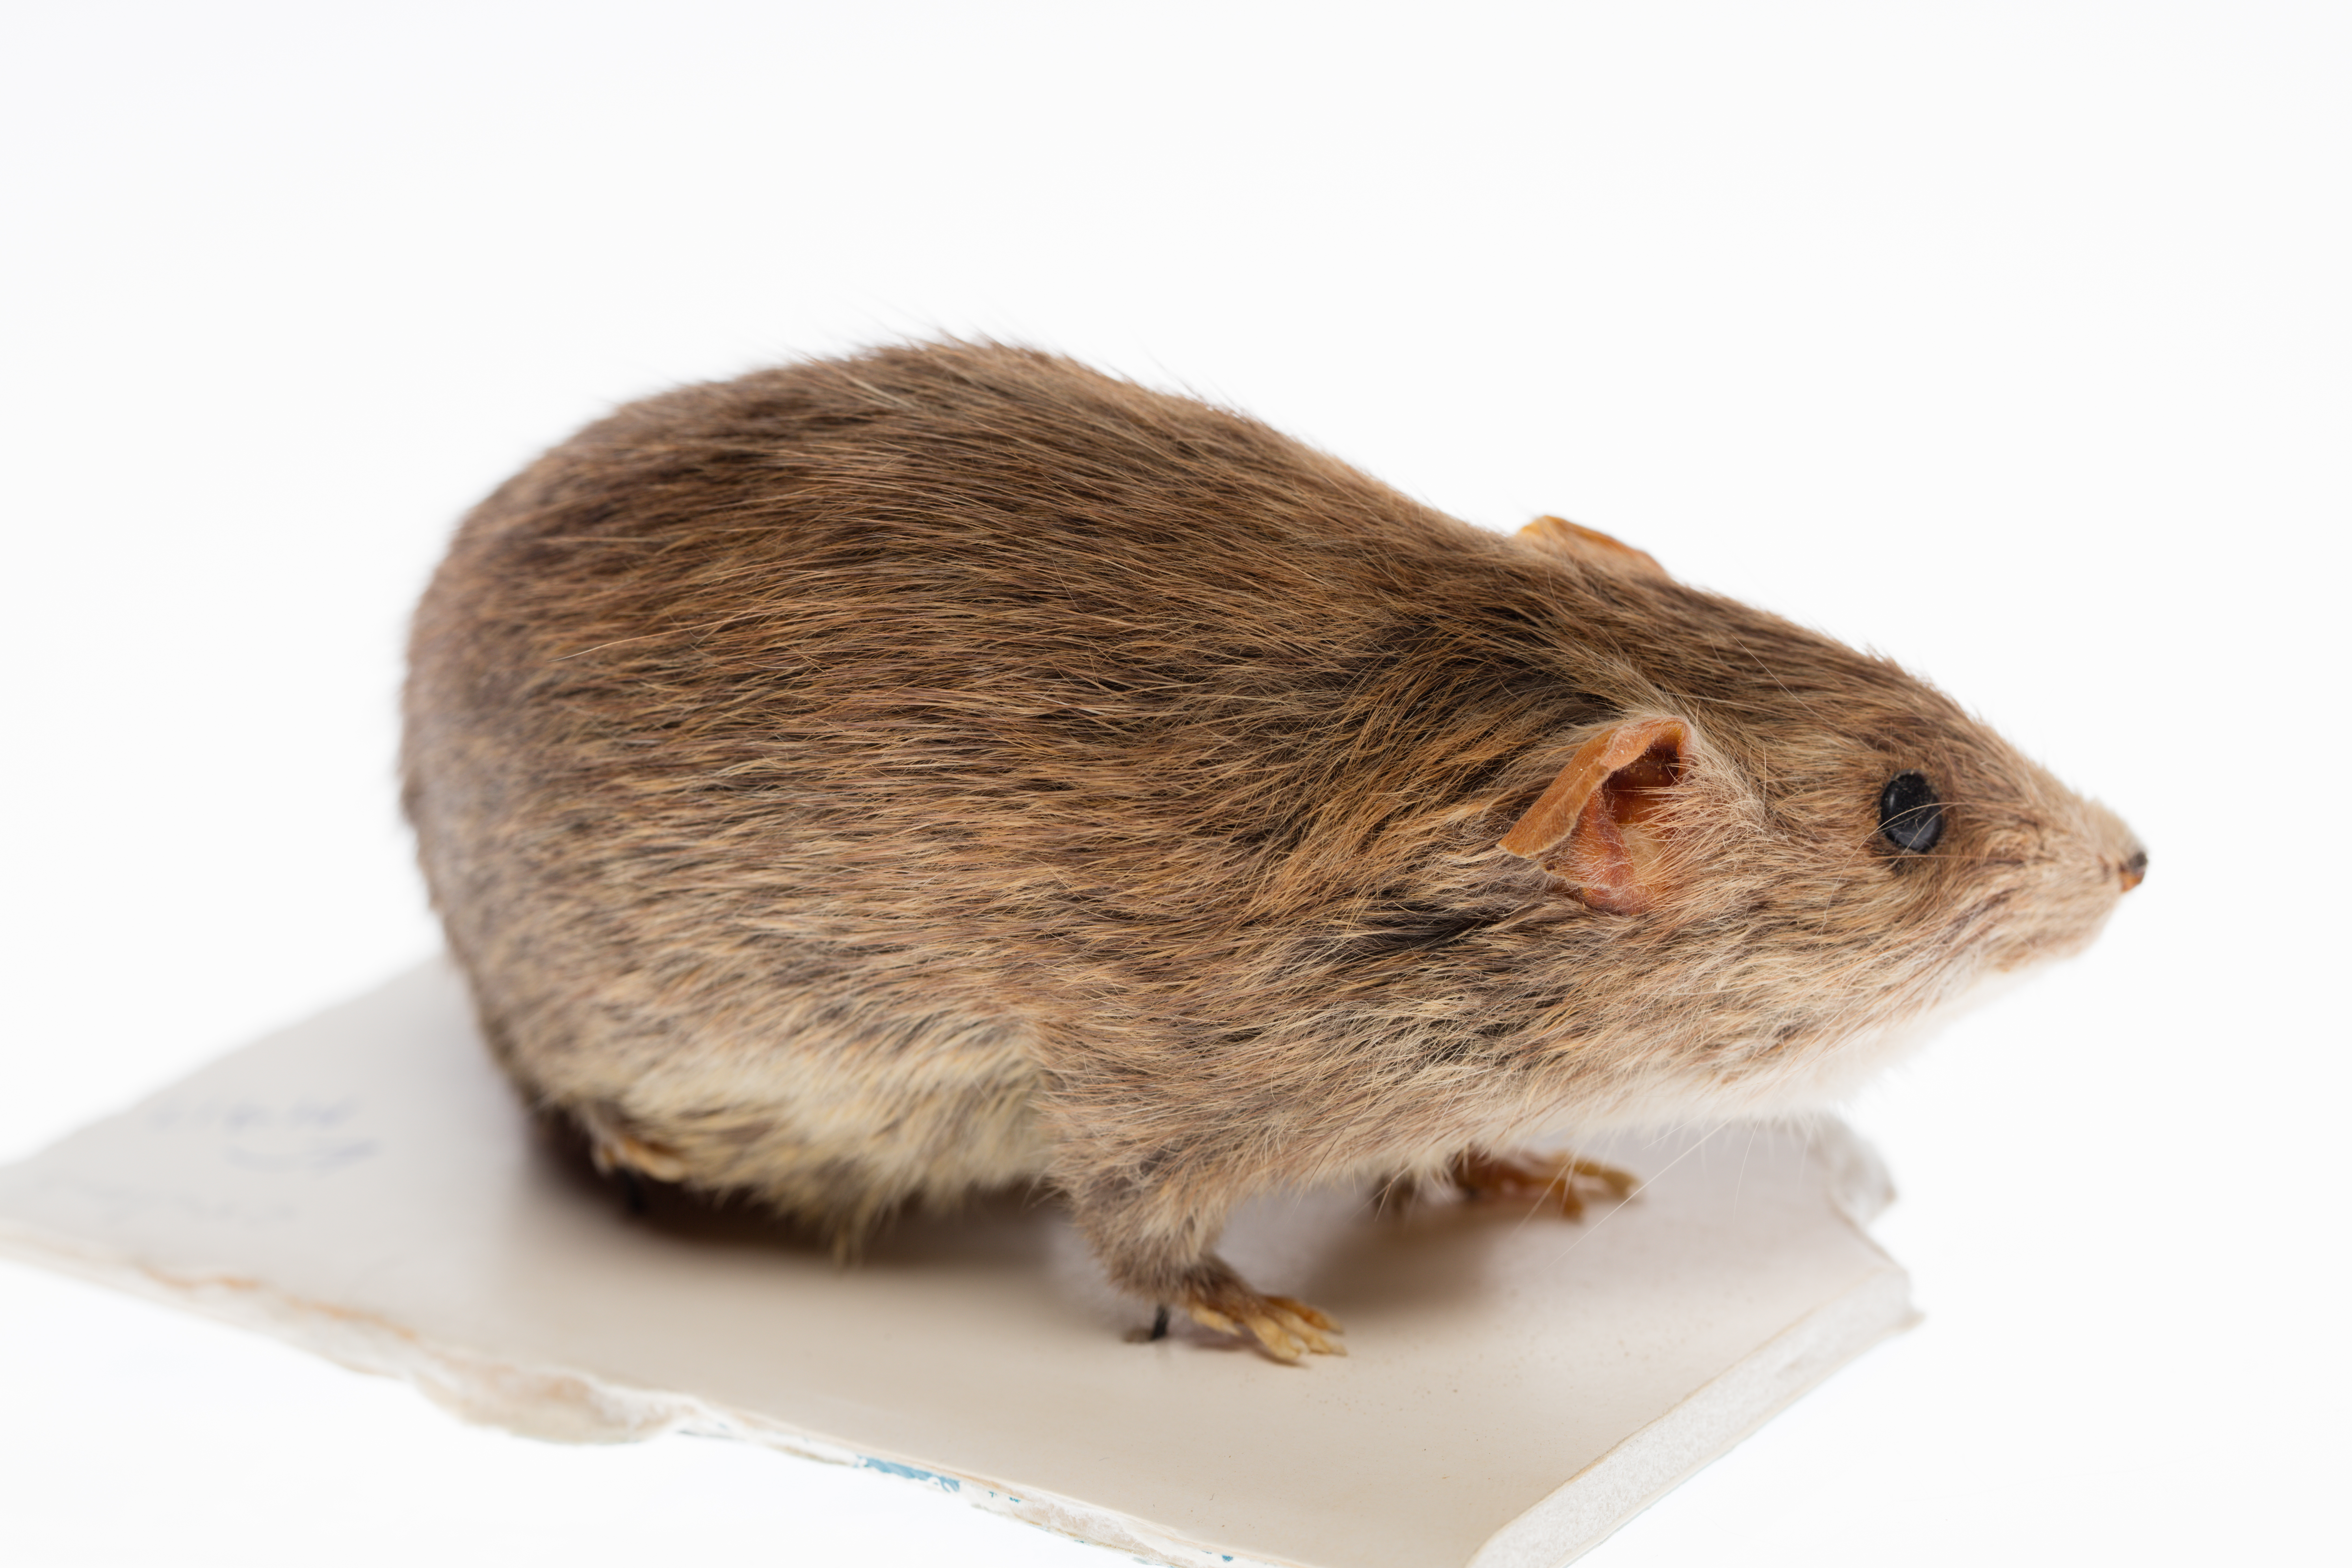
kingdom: Animalia
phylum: Chordata
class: Mammalia
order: Rodentia
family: Muridae
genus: Rattus
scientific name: Rattus exulans
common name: Polynesian rat
